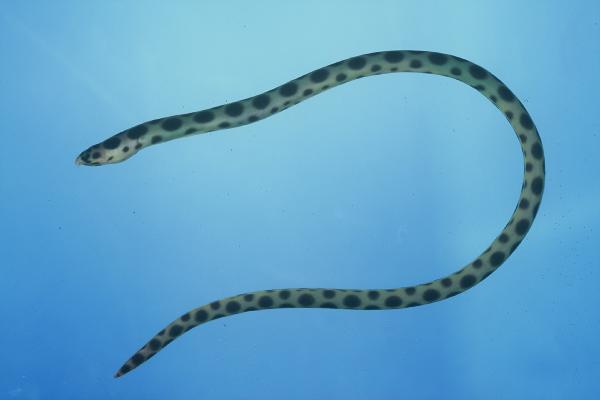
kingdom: Animalia
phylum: Chordata
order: Anguilliformes
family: Ophichthidae
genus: Myrichthys
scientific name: Myrichthys maculosus
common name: Spotted snake eel
